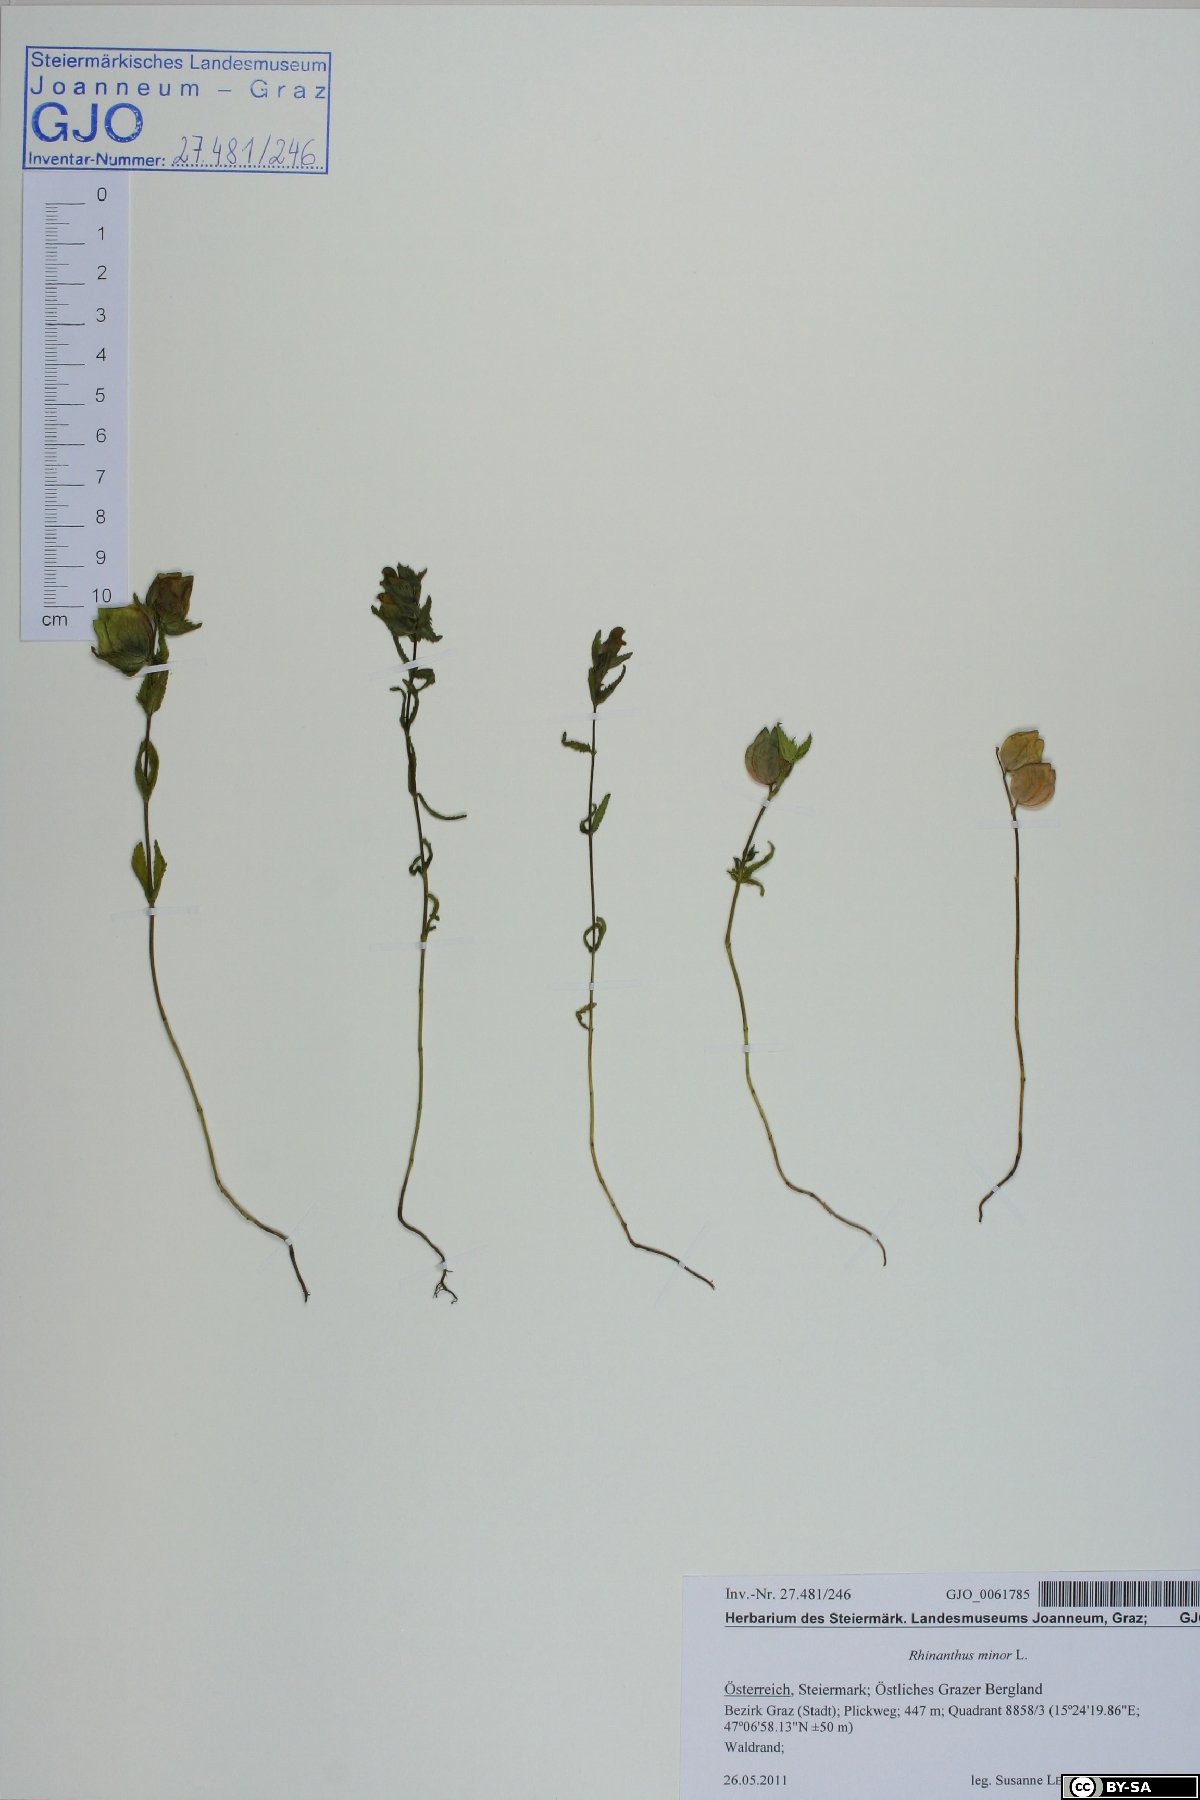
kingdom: Plantae
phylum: Tracheophyta
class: Magnoliopsida
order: Lamiales
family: Orobanchaceae
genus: Rhinanthus
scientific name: Rhinanthus minor
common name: Yellow-rattle
